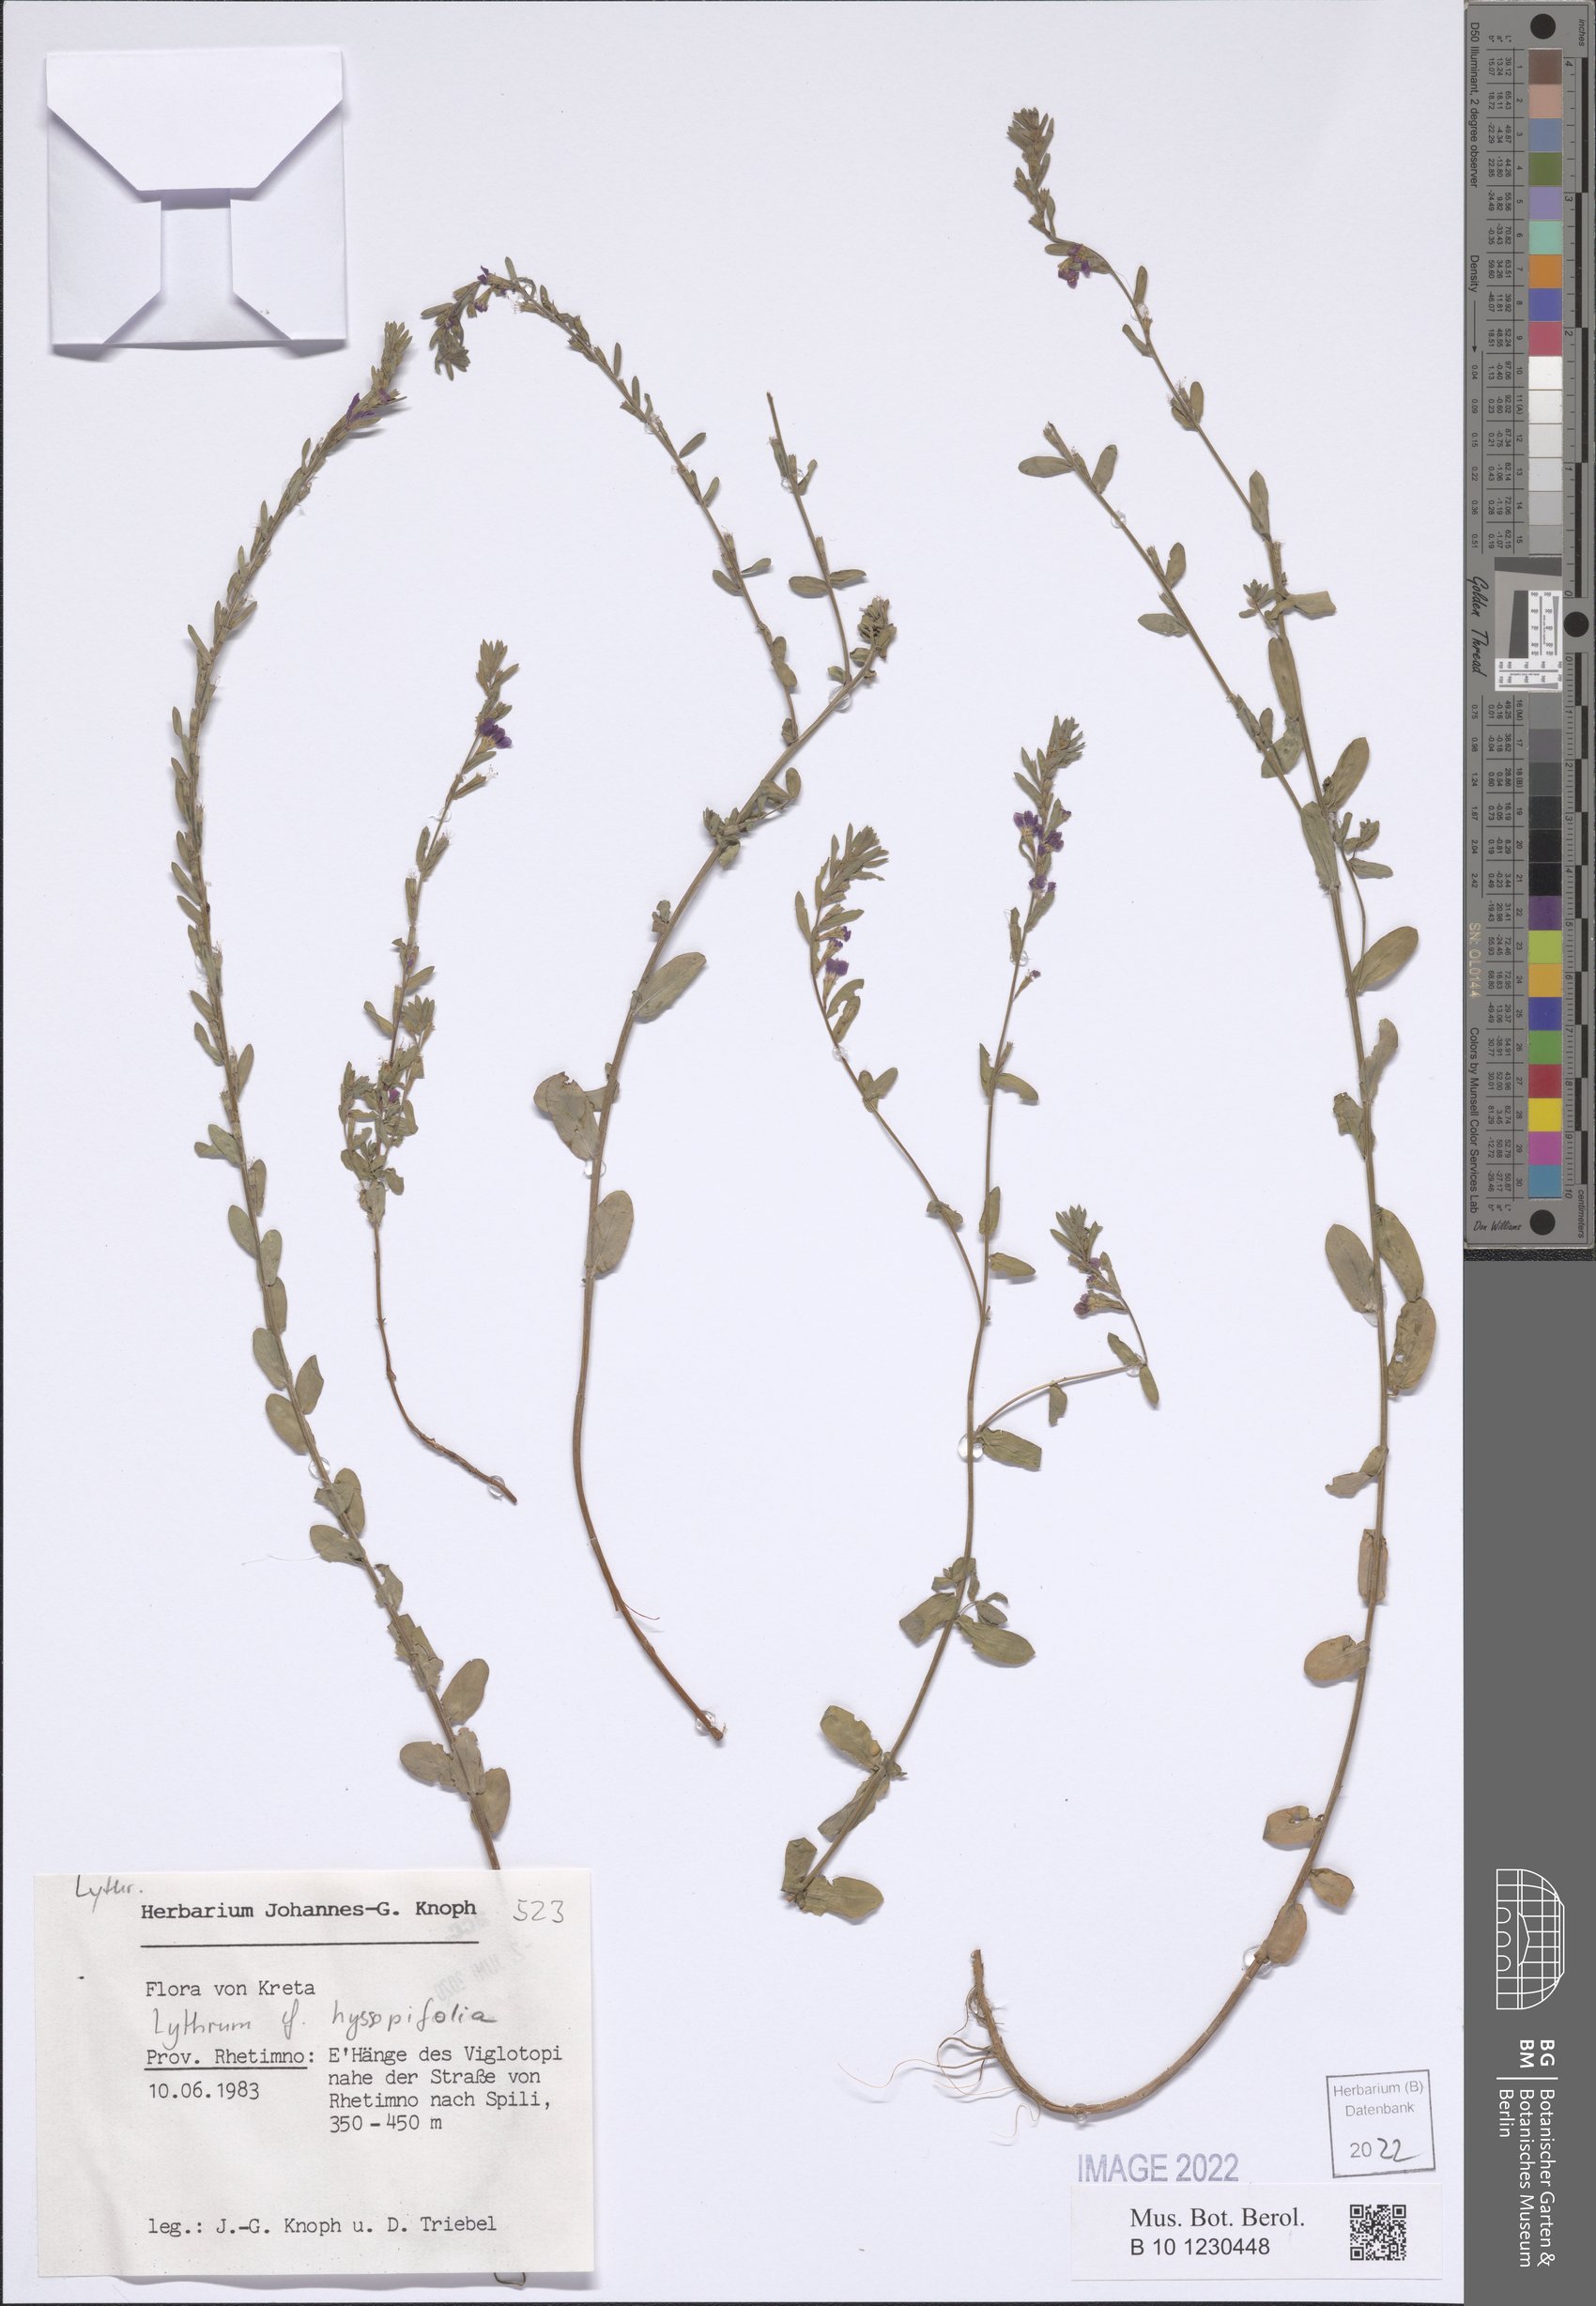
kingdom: Plantae
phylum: Tracheophyta
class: Magnoliopsida
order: Myrtales
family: Lythraceae
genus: Lythrum
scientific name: Lythrum hyssopifolia
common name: Grass-poly
